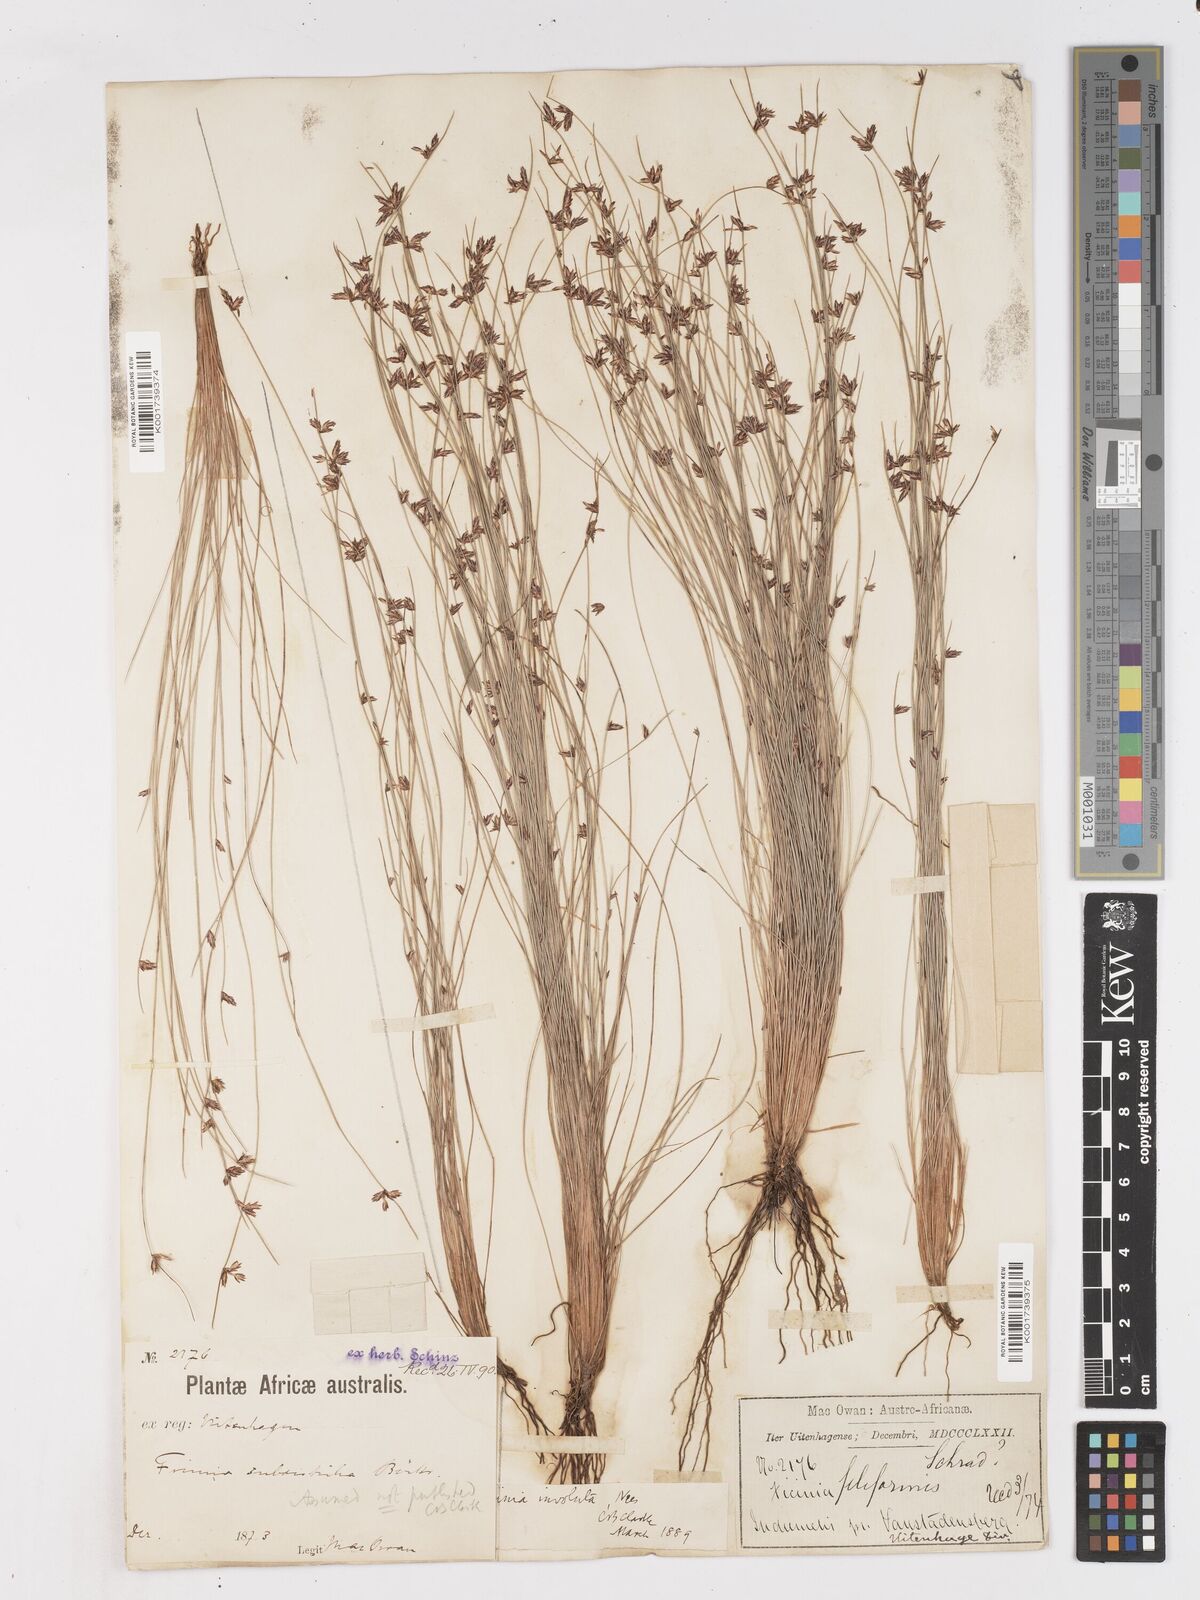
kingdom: Plantae
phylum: Tracheophyta
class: Liliopsida
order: Poales
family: Cyperaceae
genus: Ficinia
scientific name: Ficinia involuta
